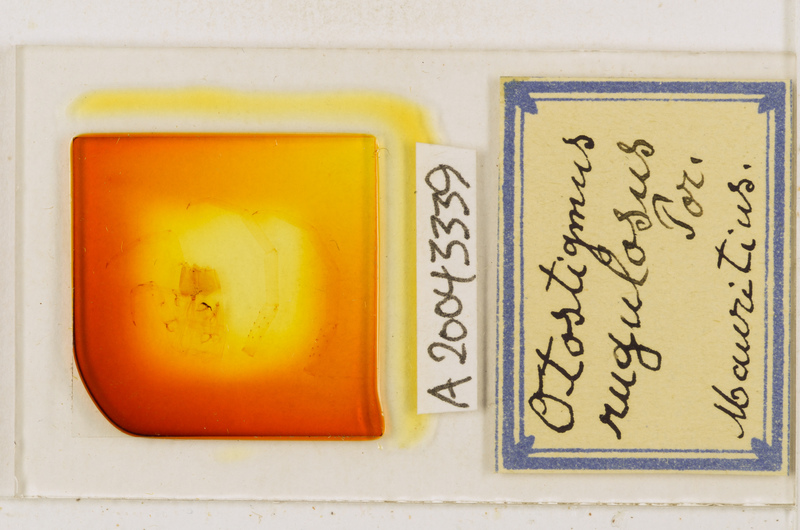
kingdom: Animalia
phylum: Arthropoda
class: Chilopoda
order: Scolopendromorpha
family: Scolopendridae
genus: Otostigmus
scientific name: Otostigmus rugulosus
